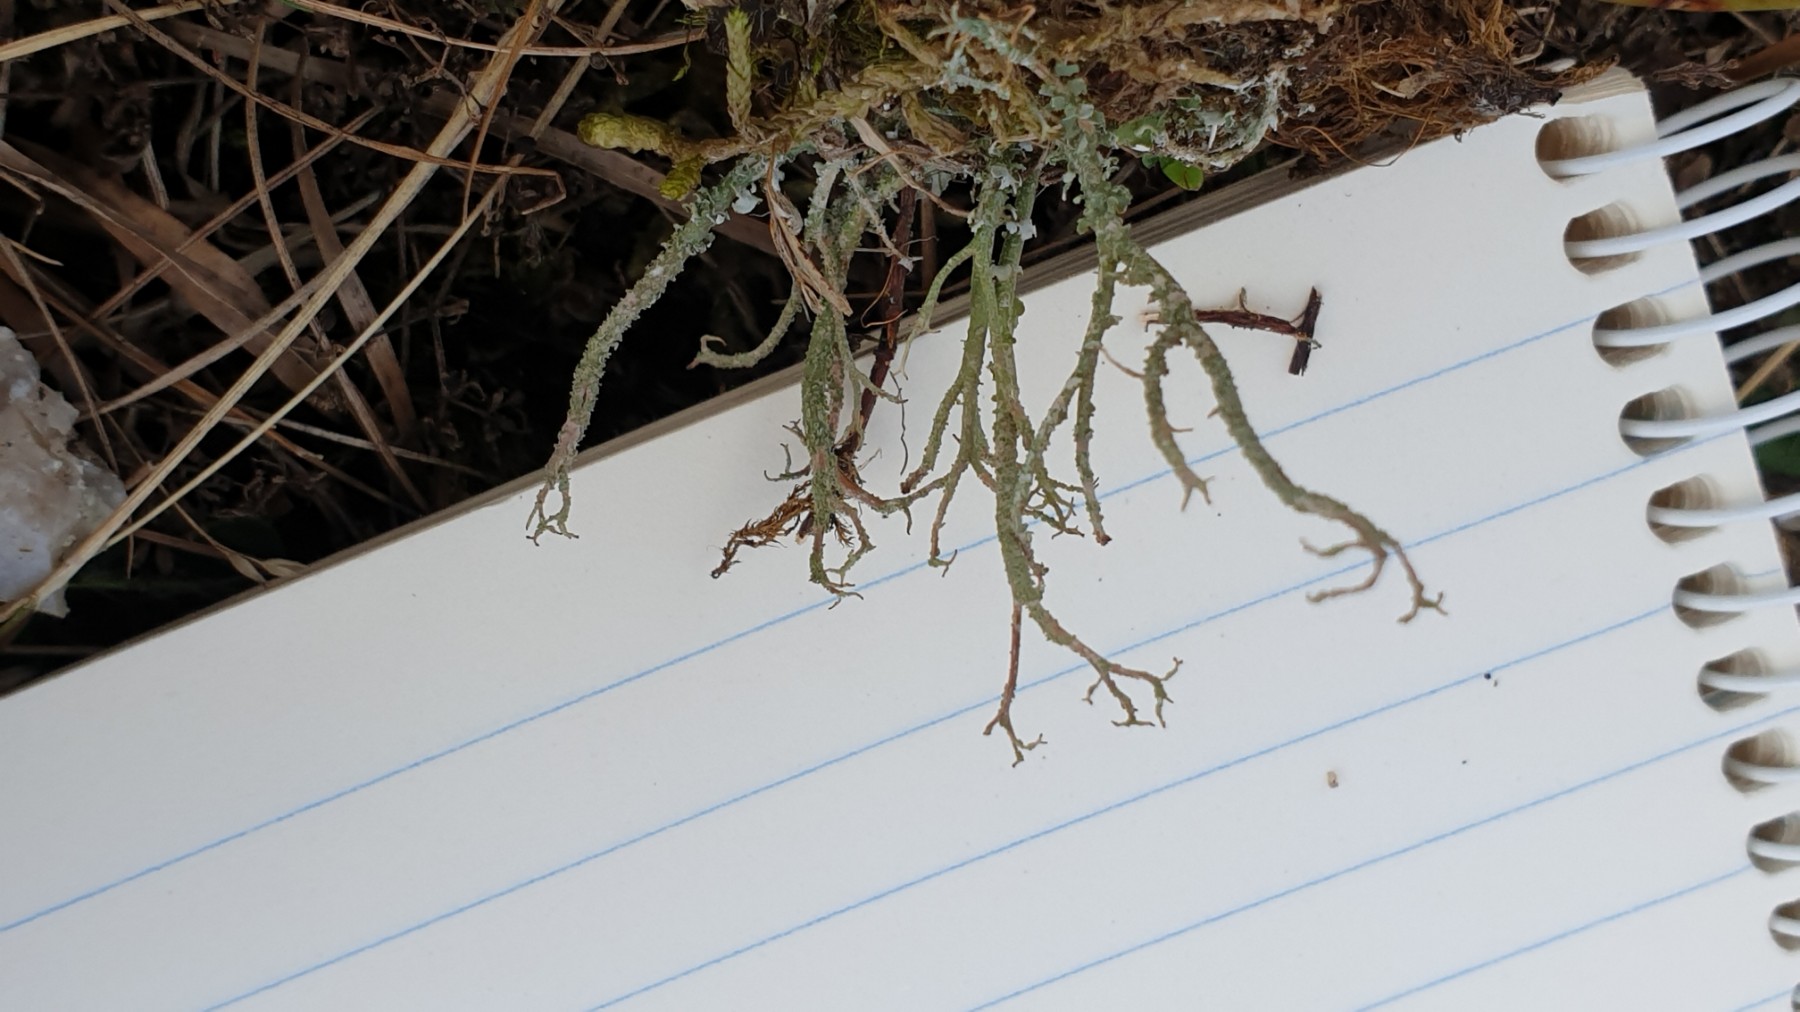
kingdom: Fungi
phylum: Ascomycota
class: Lecanoromycetes
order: Lecanorales
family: Cladoniaceae
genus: Cladonia
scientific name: Cladonia scabriuscula
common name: ru bægerlav
